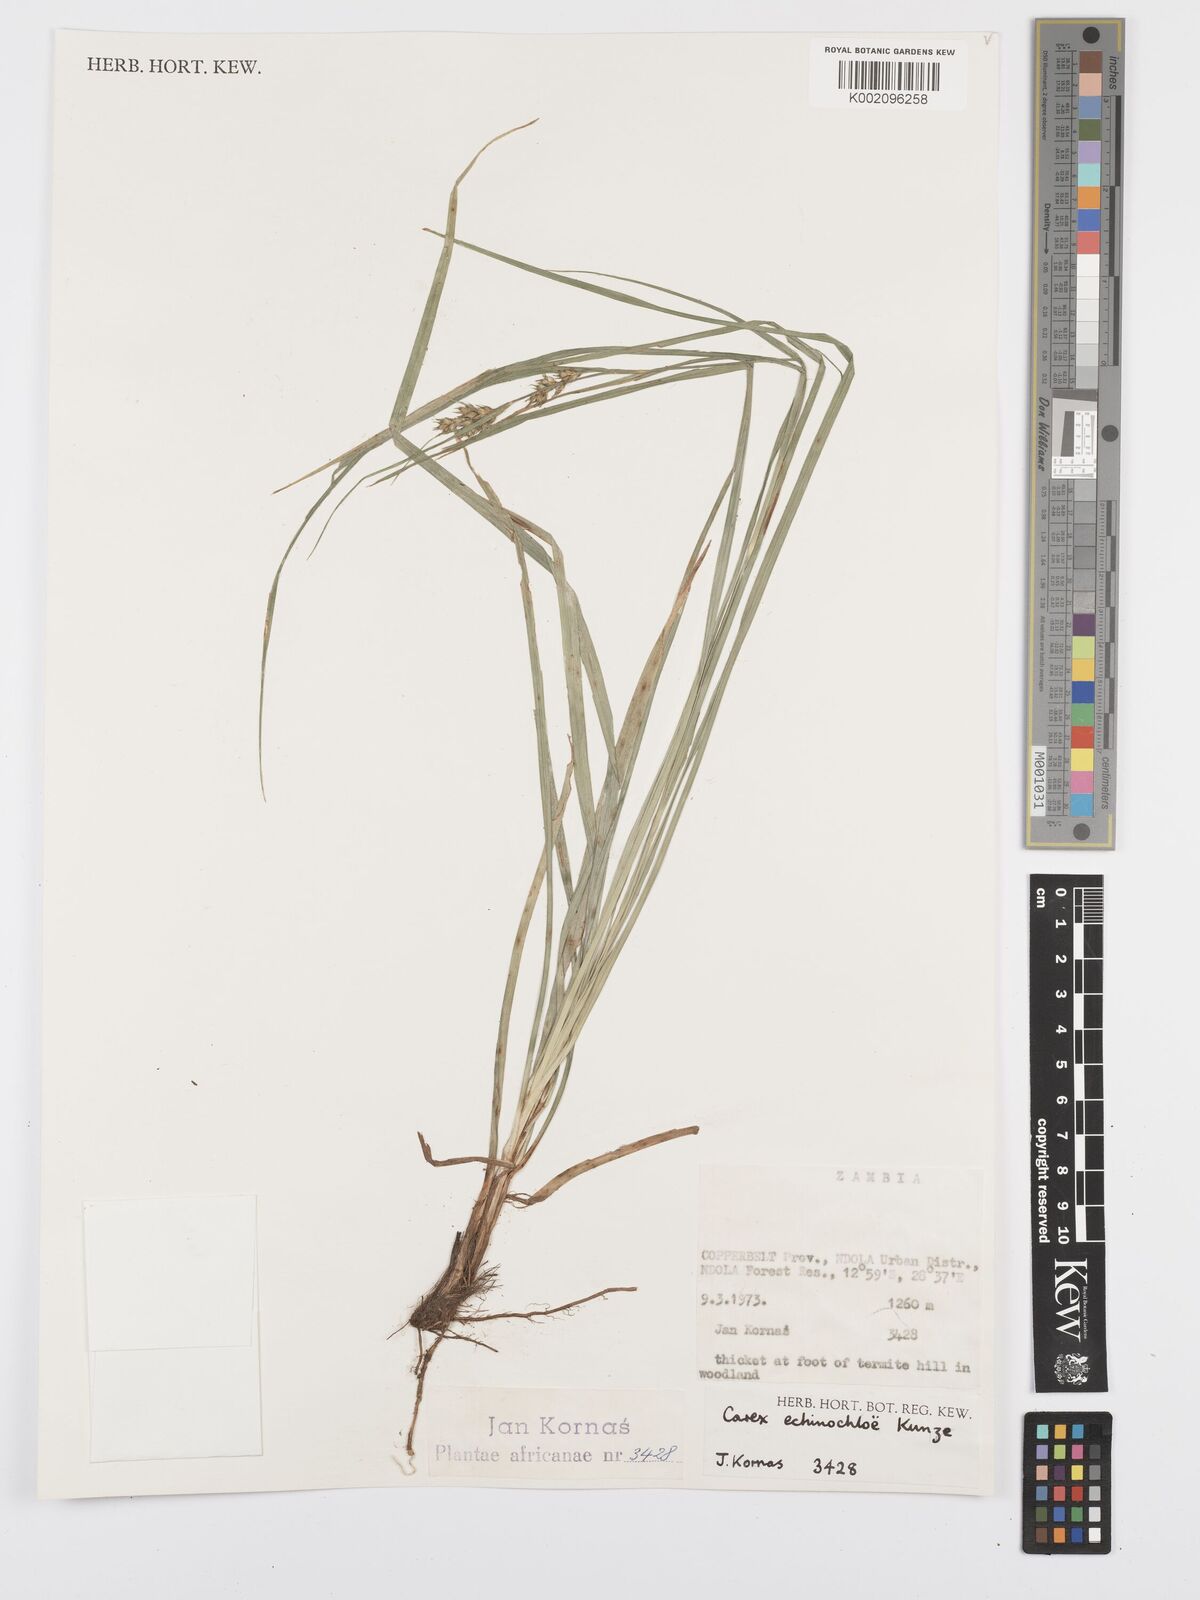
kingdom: Plantae
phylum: Tracheophyta
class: Liliopsida
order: Poales
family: Cyperaceae
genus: Carex
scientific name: Carex echinochloe
